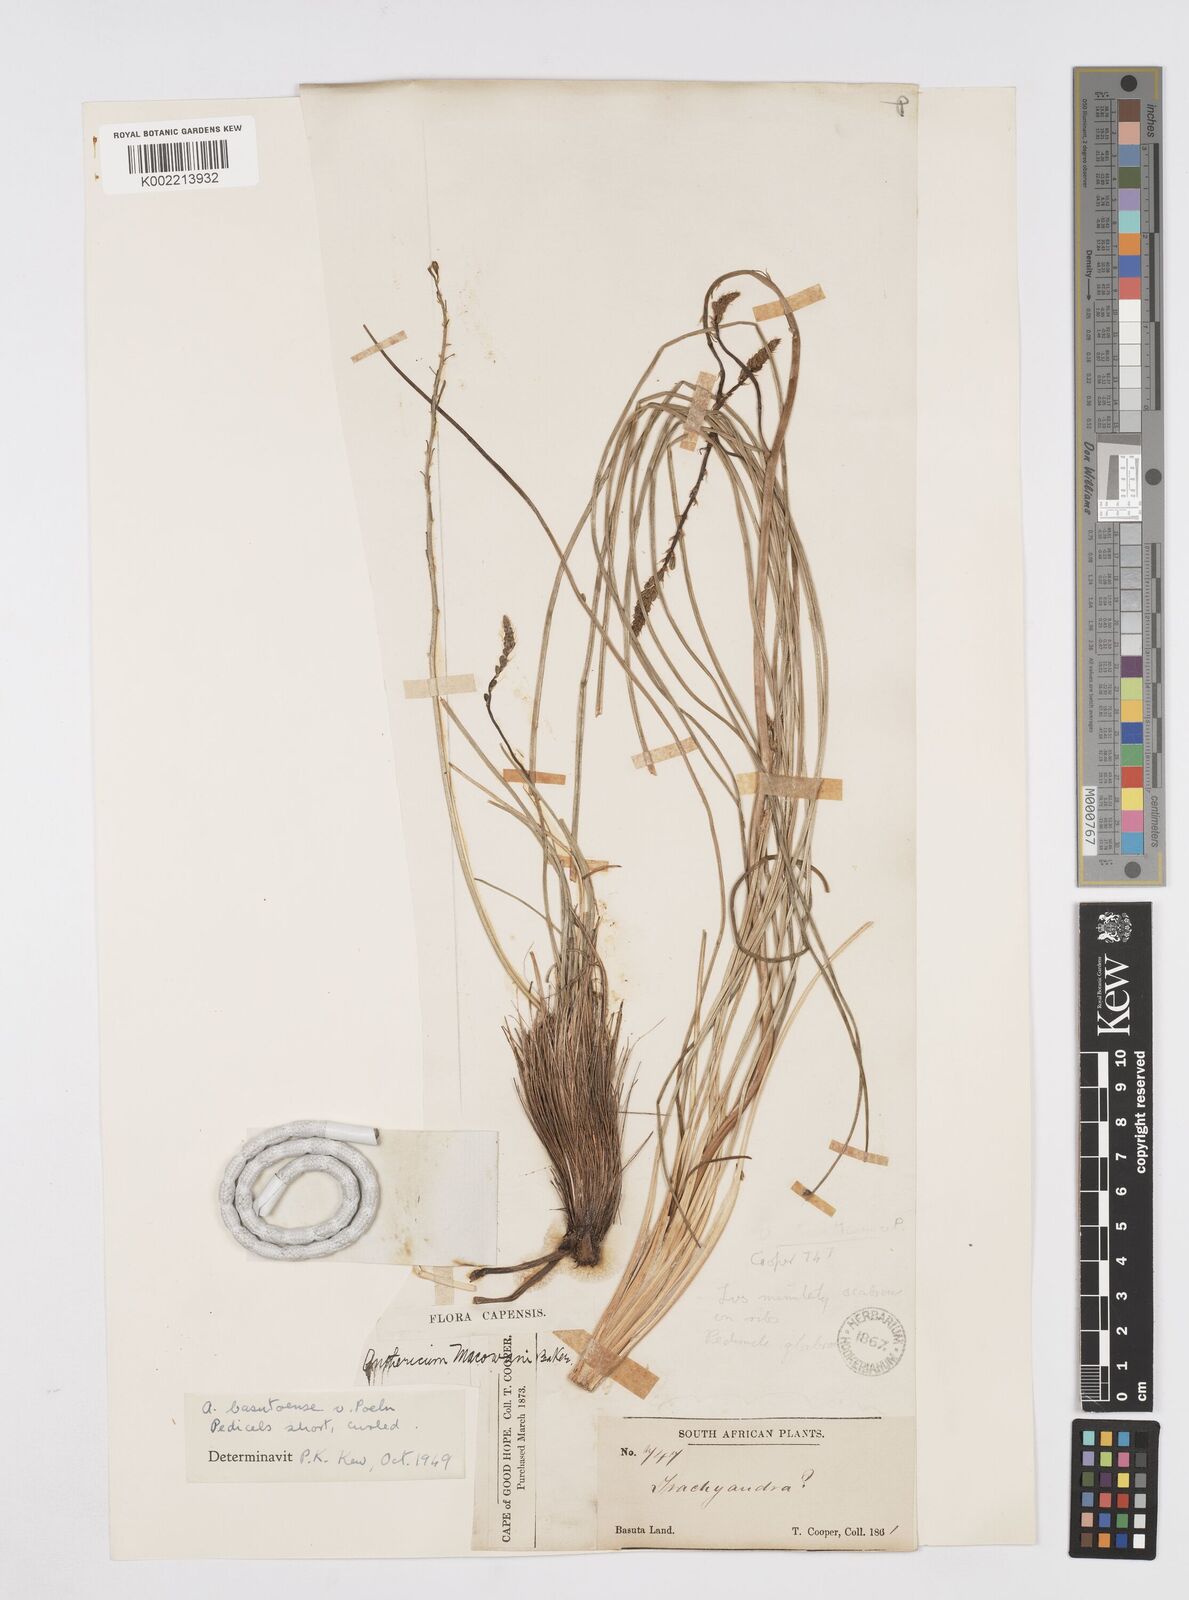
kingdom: Plantae
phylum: Tracheophyta
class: Liliopsida
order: Asparagales
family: Asphodelaceae
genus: Trachyandra
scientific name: Trachyandra asperata
